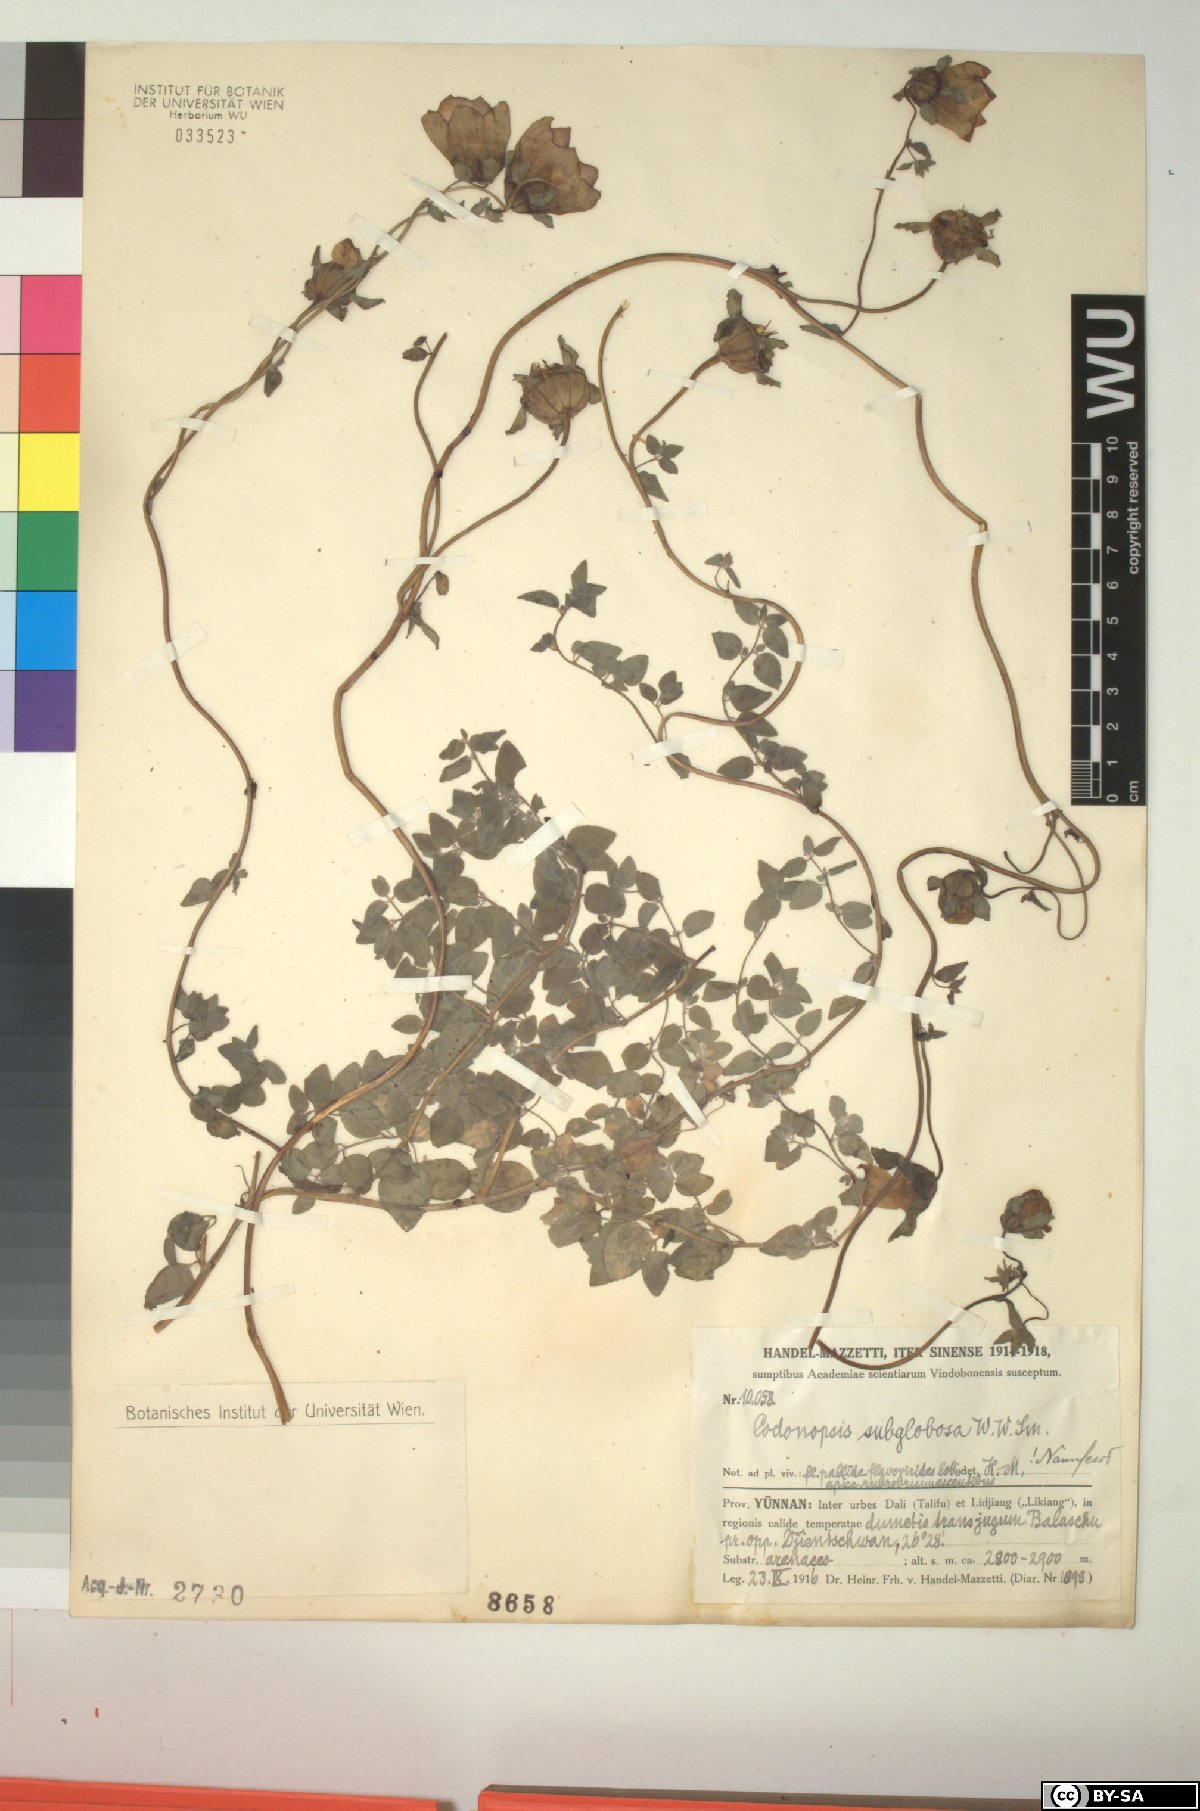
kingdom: Plantae
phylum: Tracheophyta
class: Magnoliopsida
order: Asterales
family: Campanulaceae
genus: Codonopsis
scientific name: Codonopsis subglobosa
